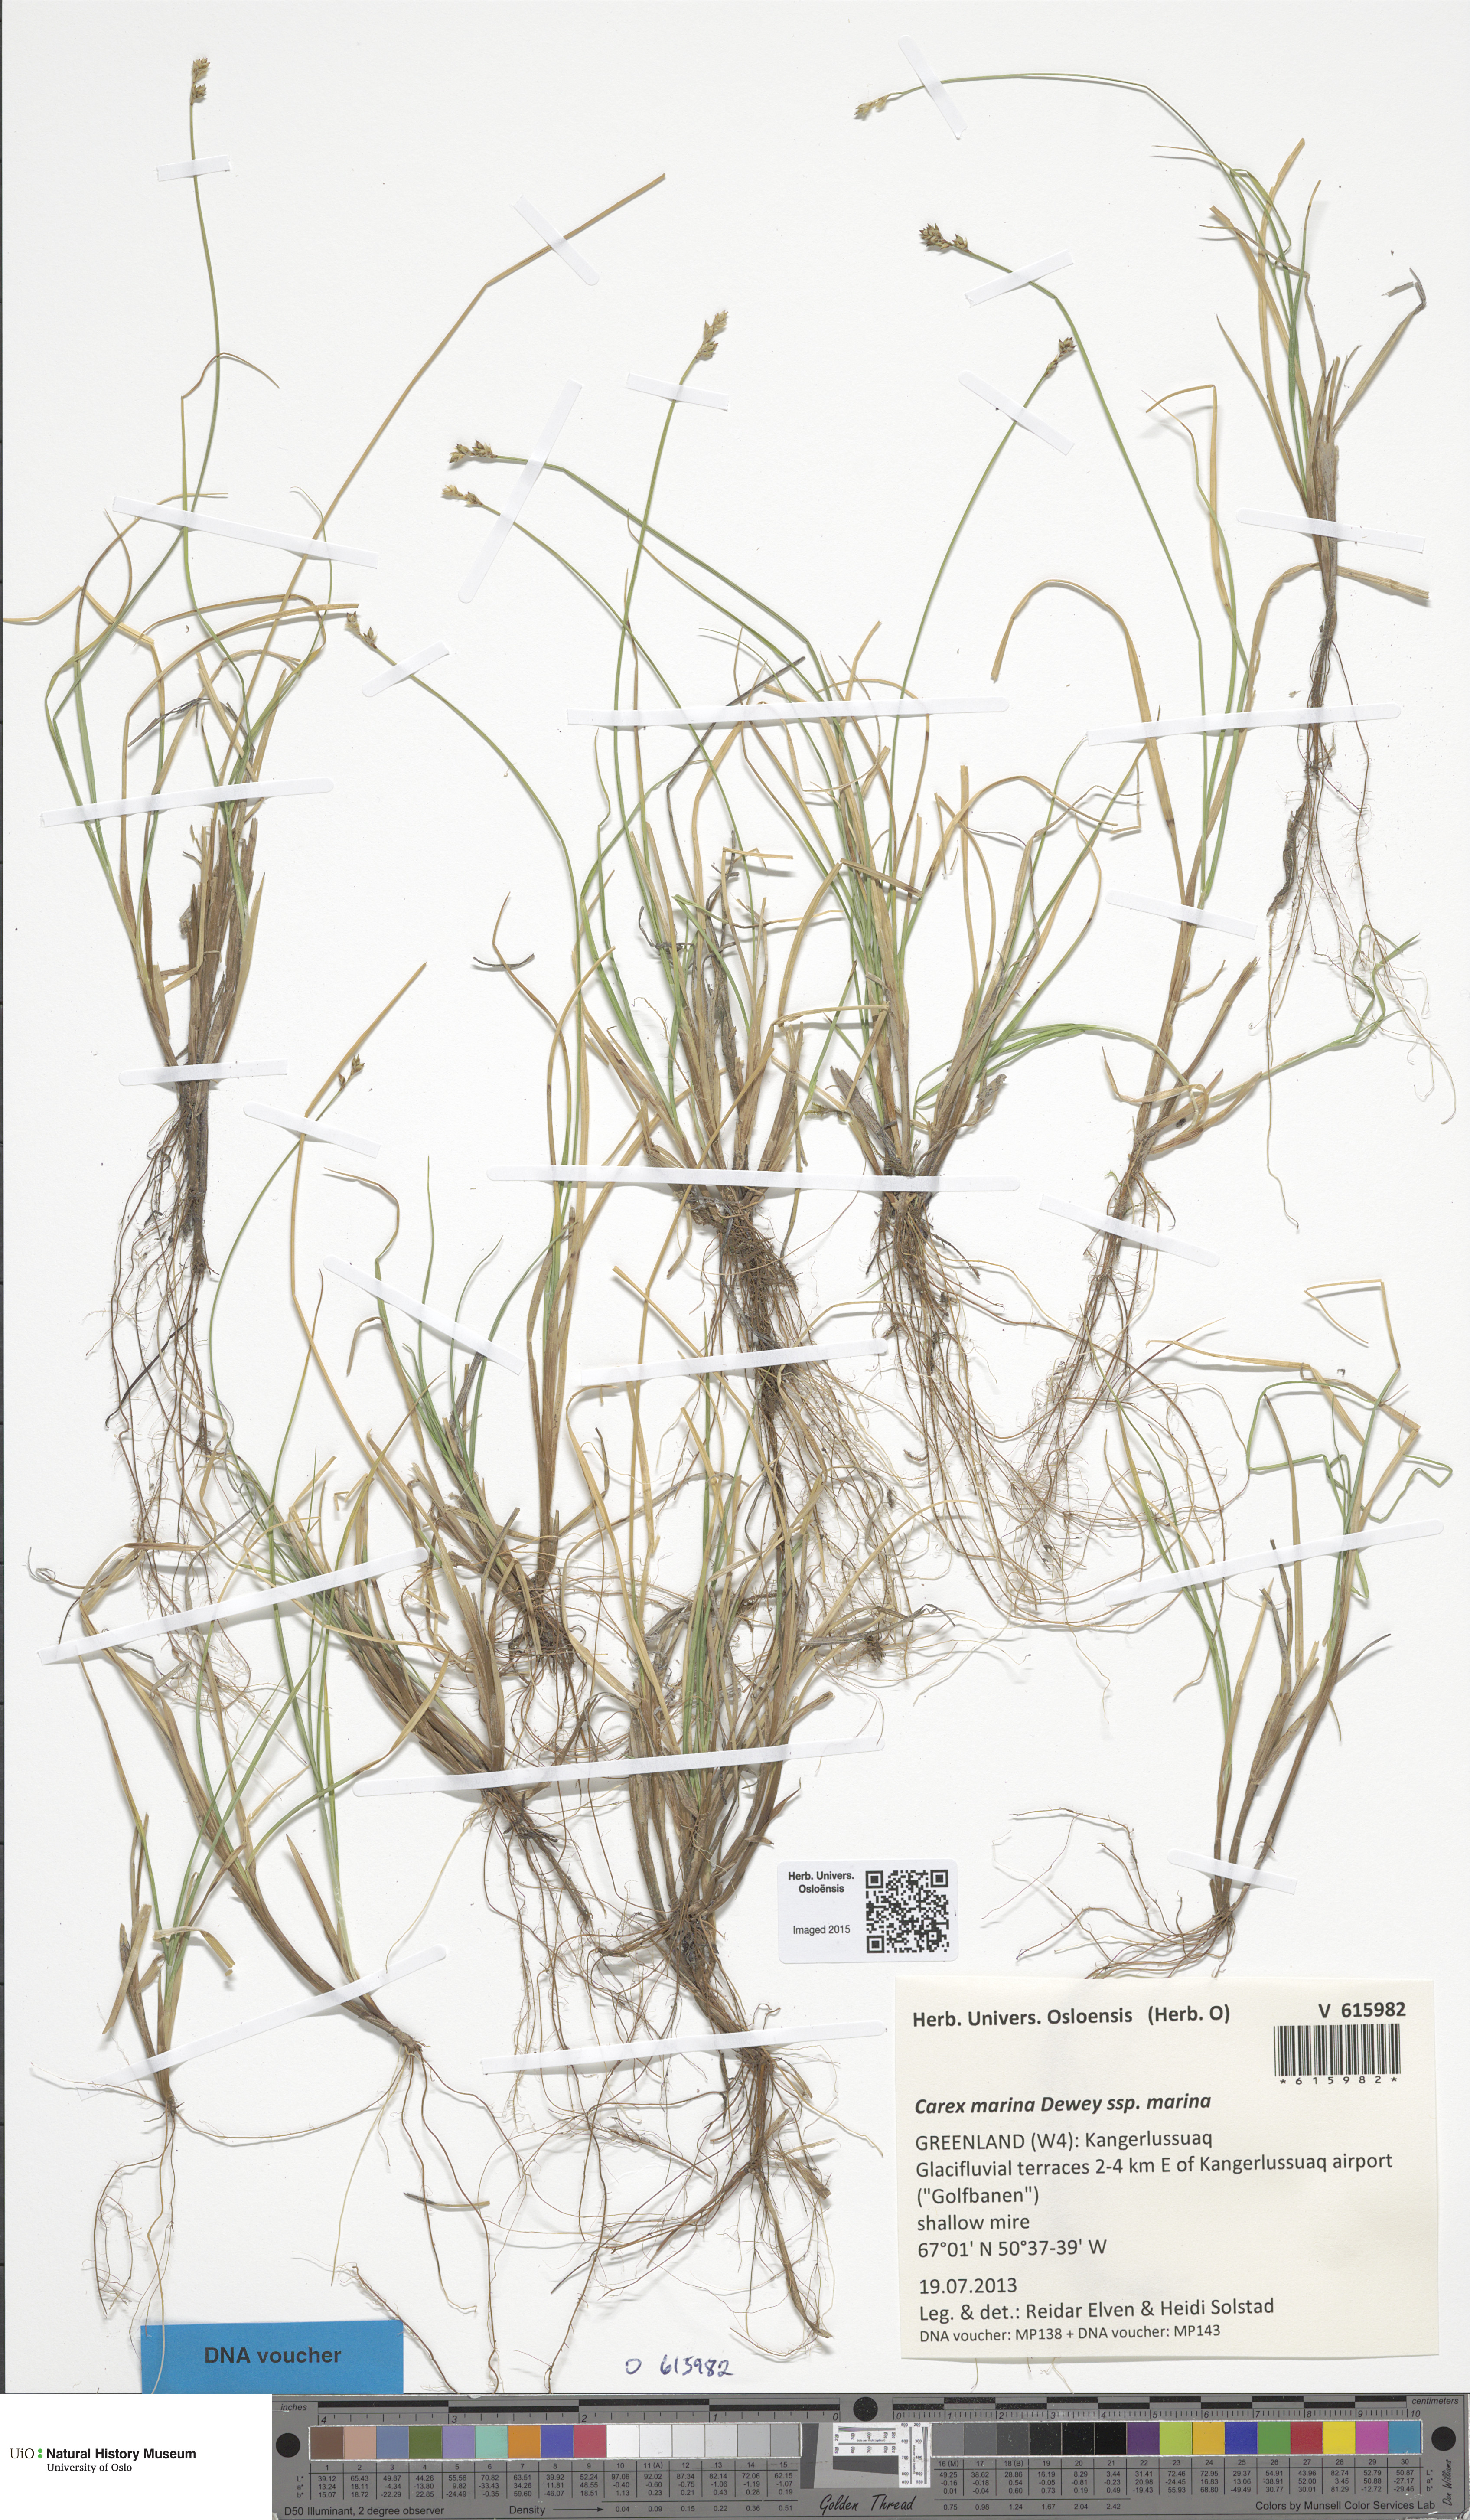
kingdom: Plantae
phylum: Tracheophyta
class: Liliopsida
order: Poales
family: Cyperaceae
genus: Carex
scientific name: Carex marina
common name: Seashore sedge
